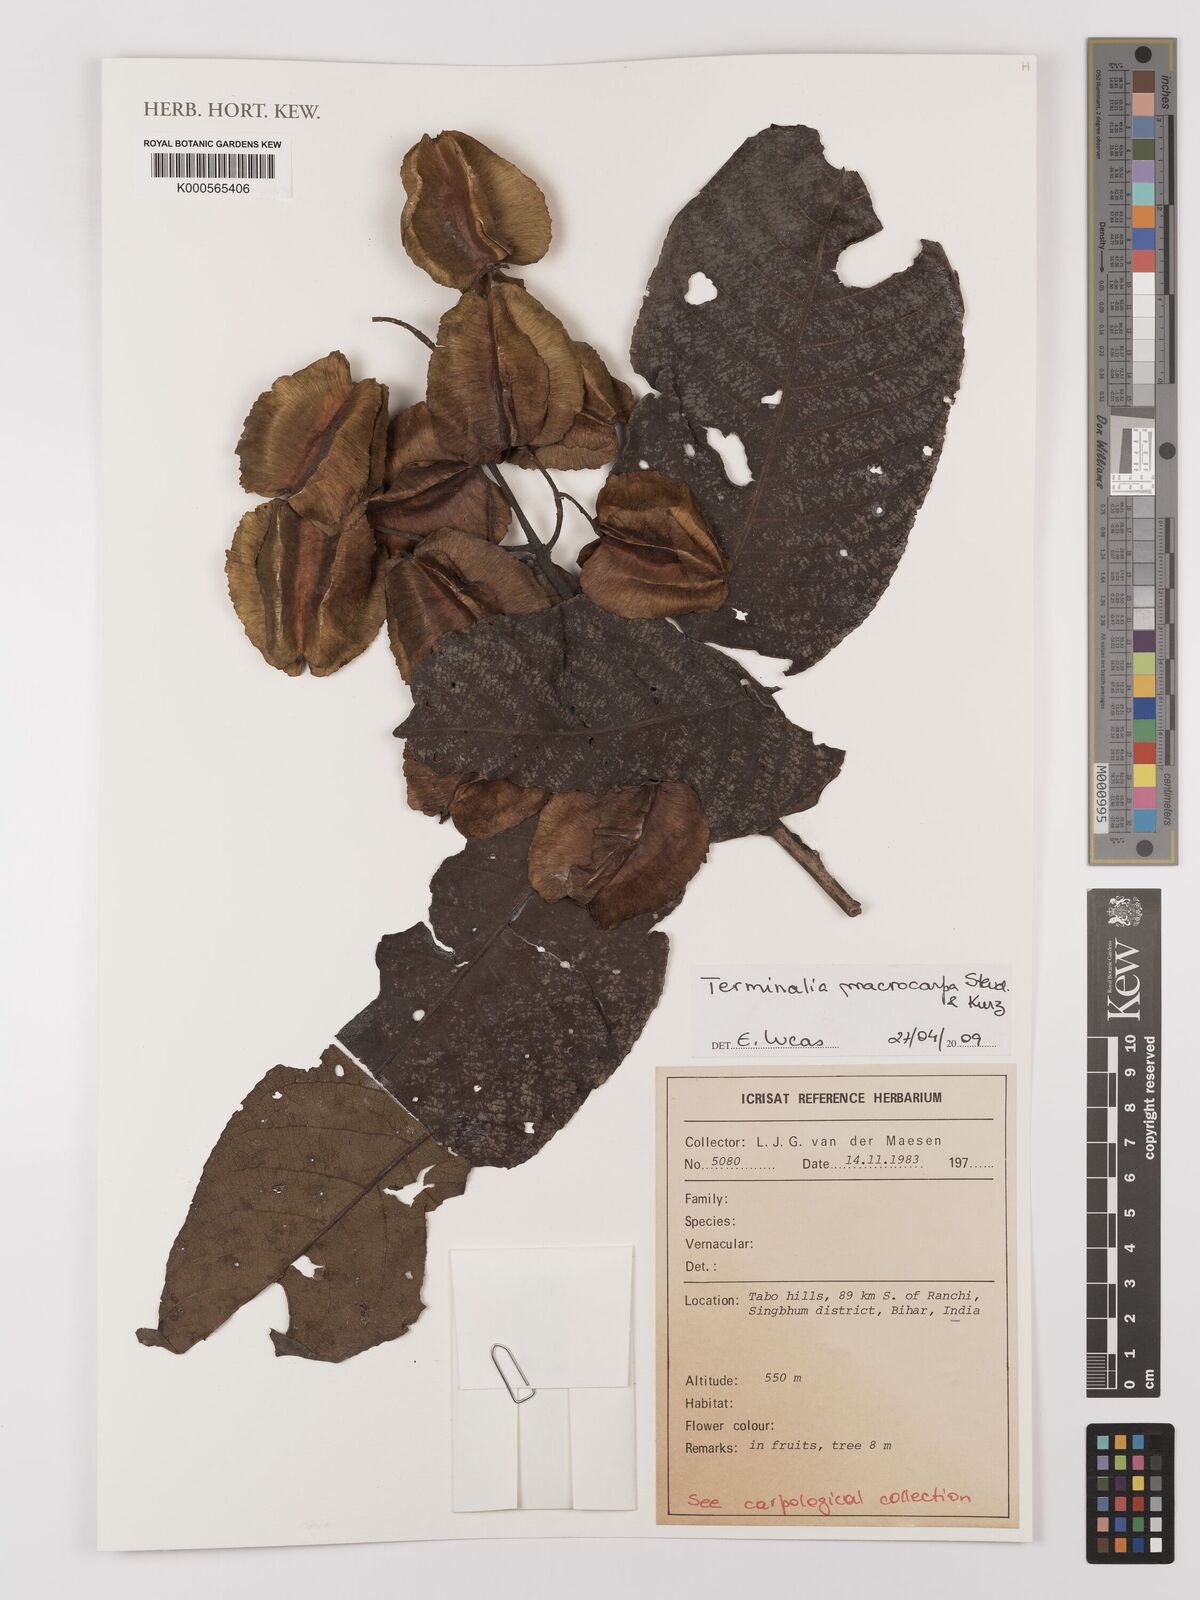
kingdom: Plantae
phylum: Tracheophyta
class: Magnoliopsida
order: Myrtales
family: Combretaceae
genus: Terminalia
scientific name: Terminalia elliptica
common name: Indian-laurel
